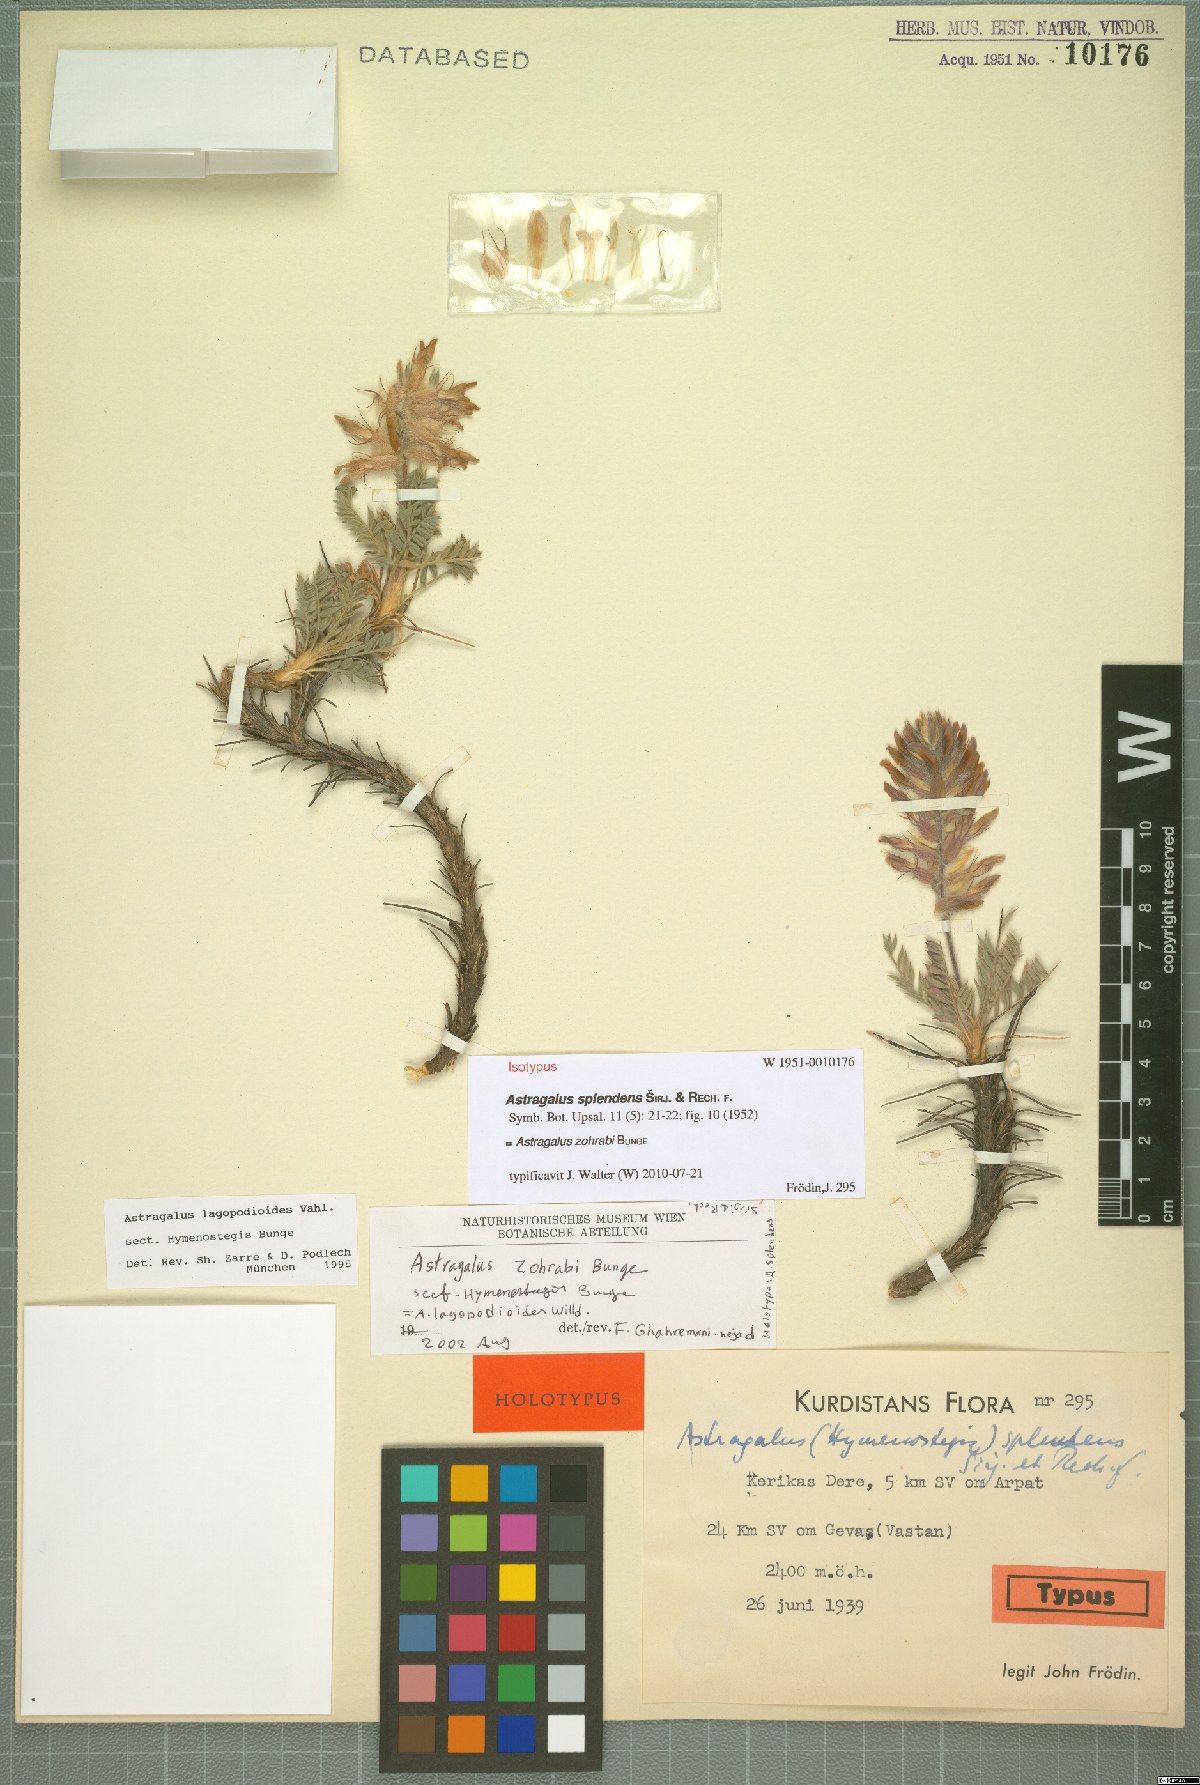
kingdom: Plantae
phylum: Tracheophyta
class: Magnoliopsida
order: Fabales
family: Fabaceae
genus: Astragalus
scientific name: Astragalus lagopodioides
